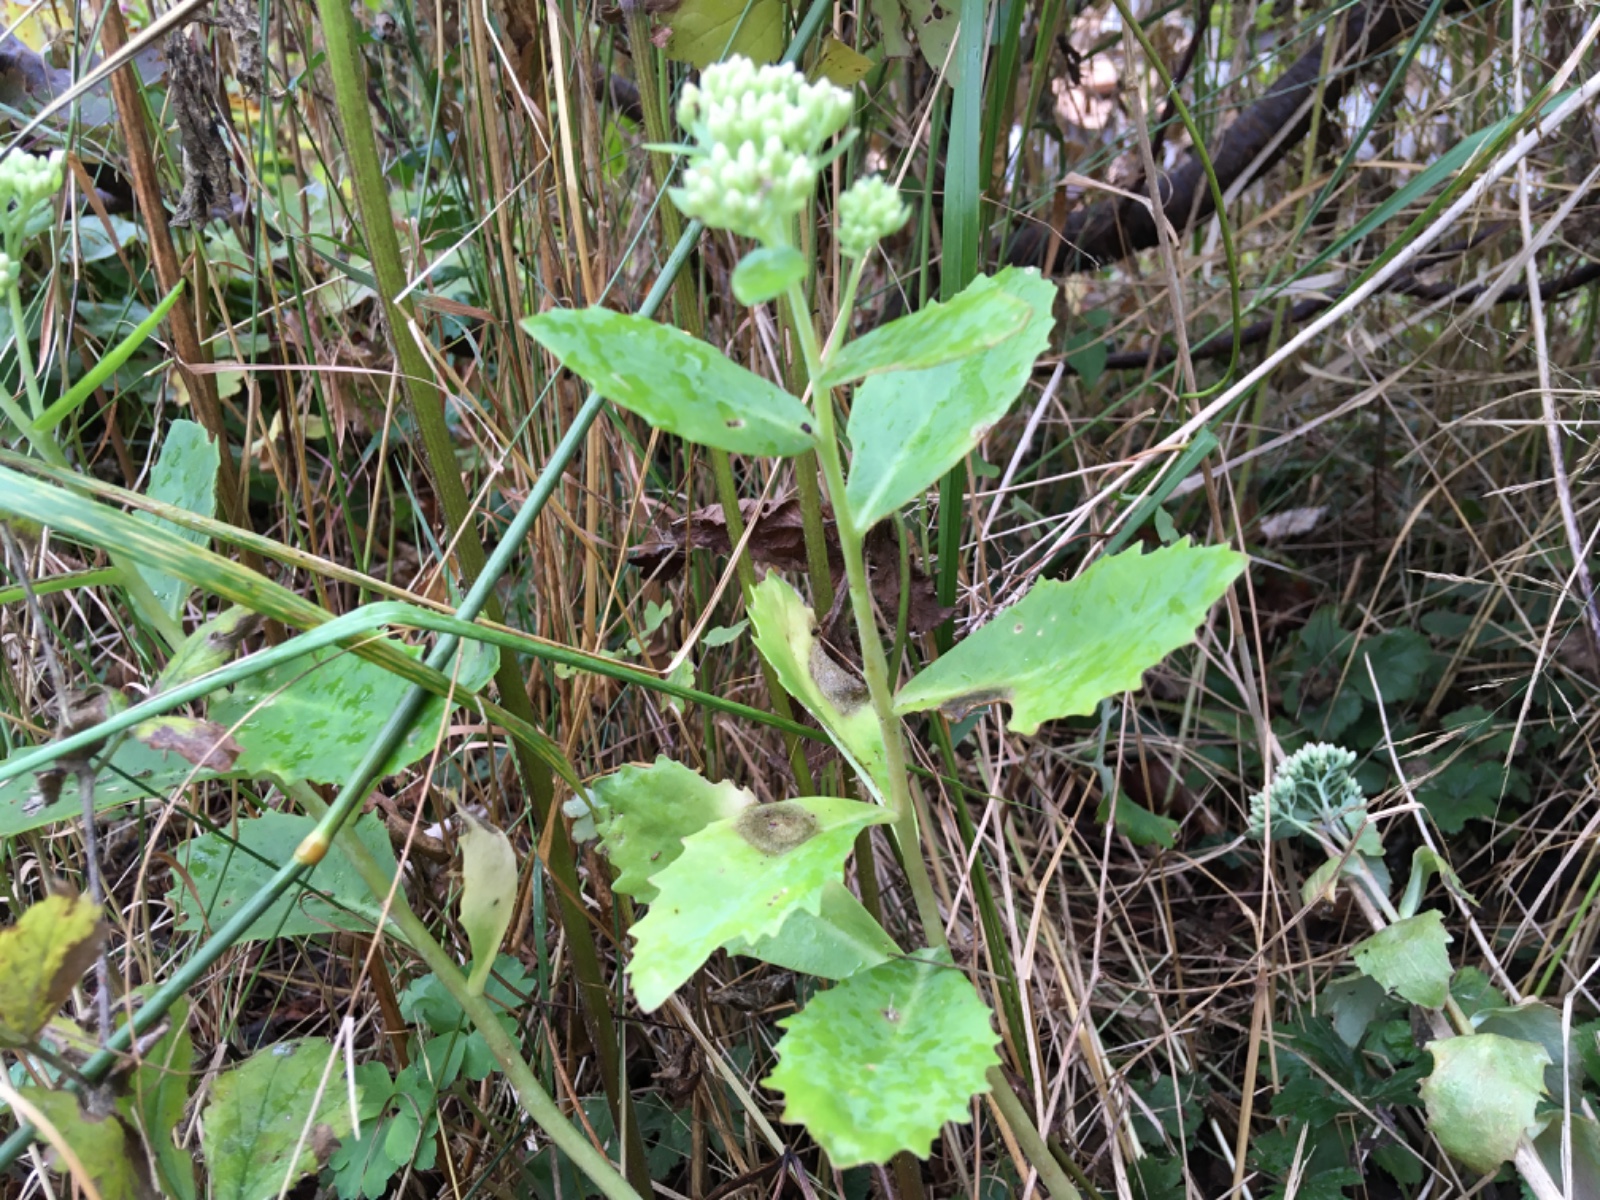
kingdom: Fungi
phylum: Ascomycota
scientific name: Ascomycota
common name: sæksvampe
